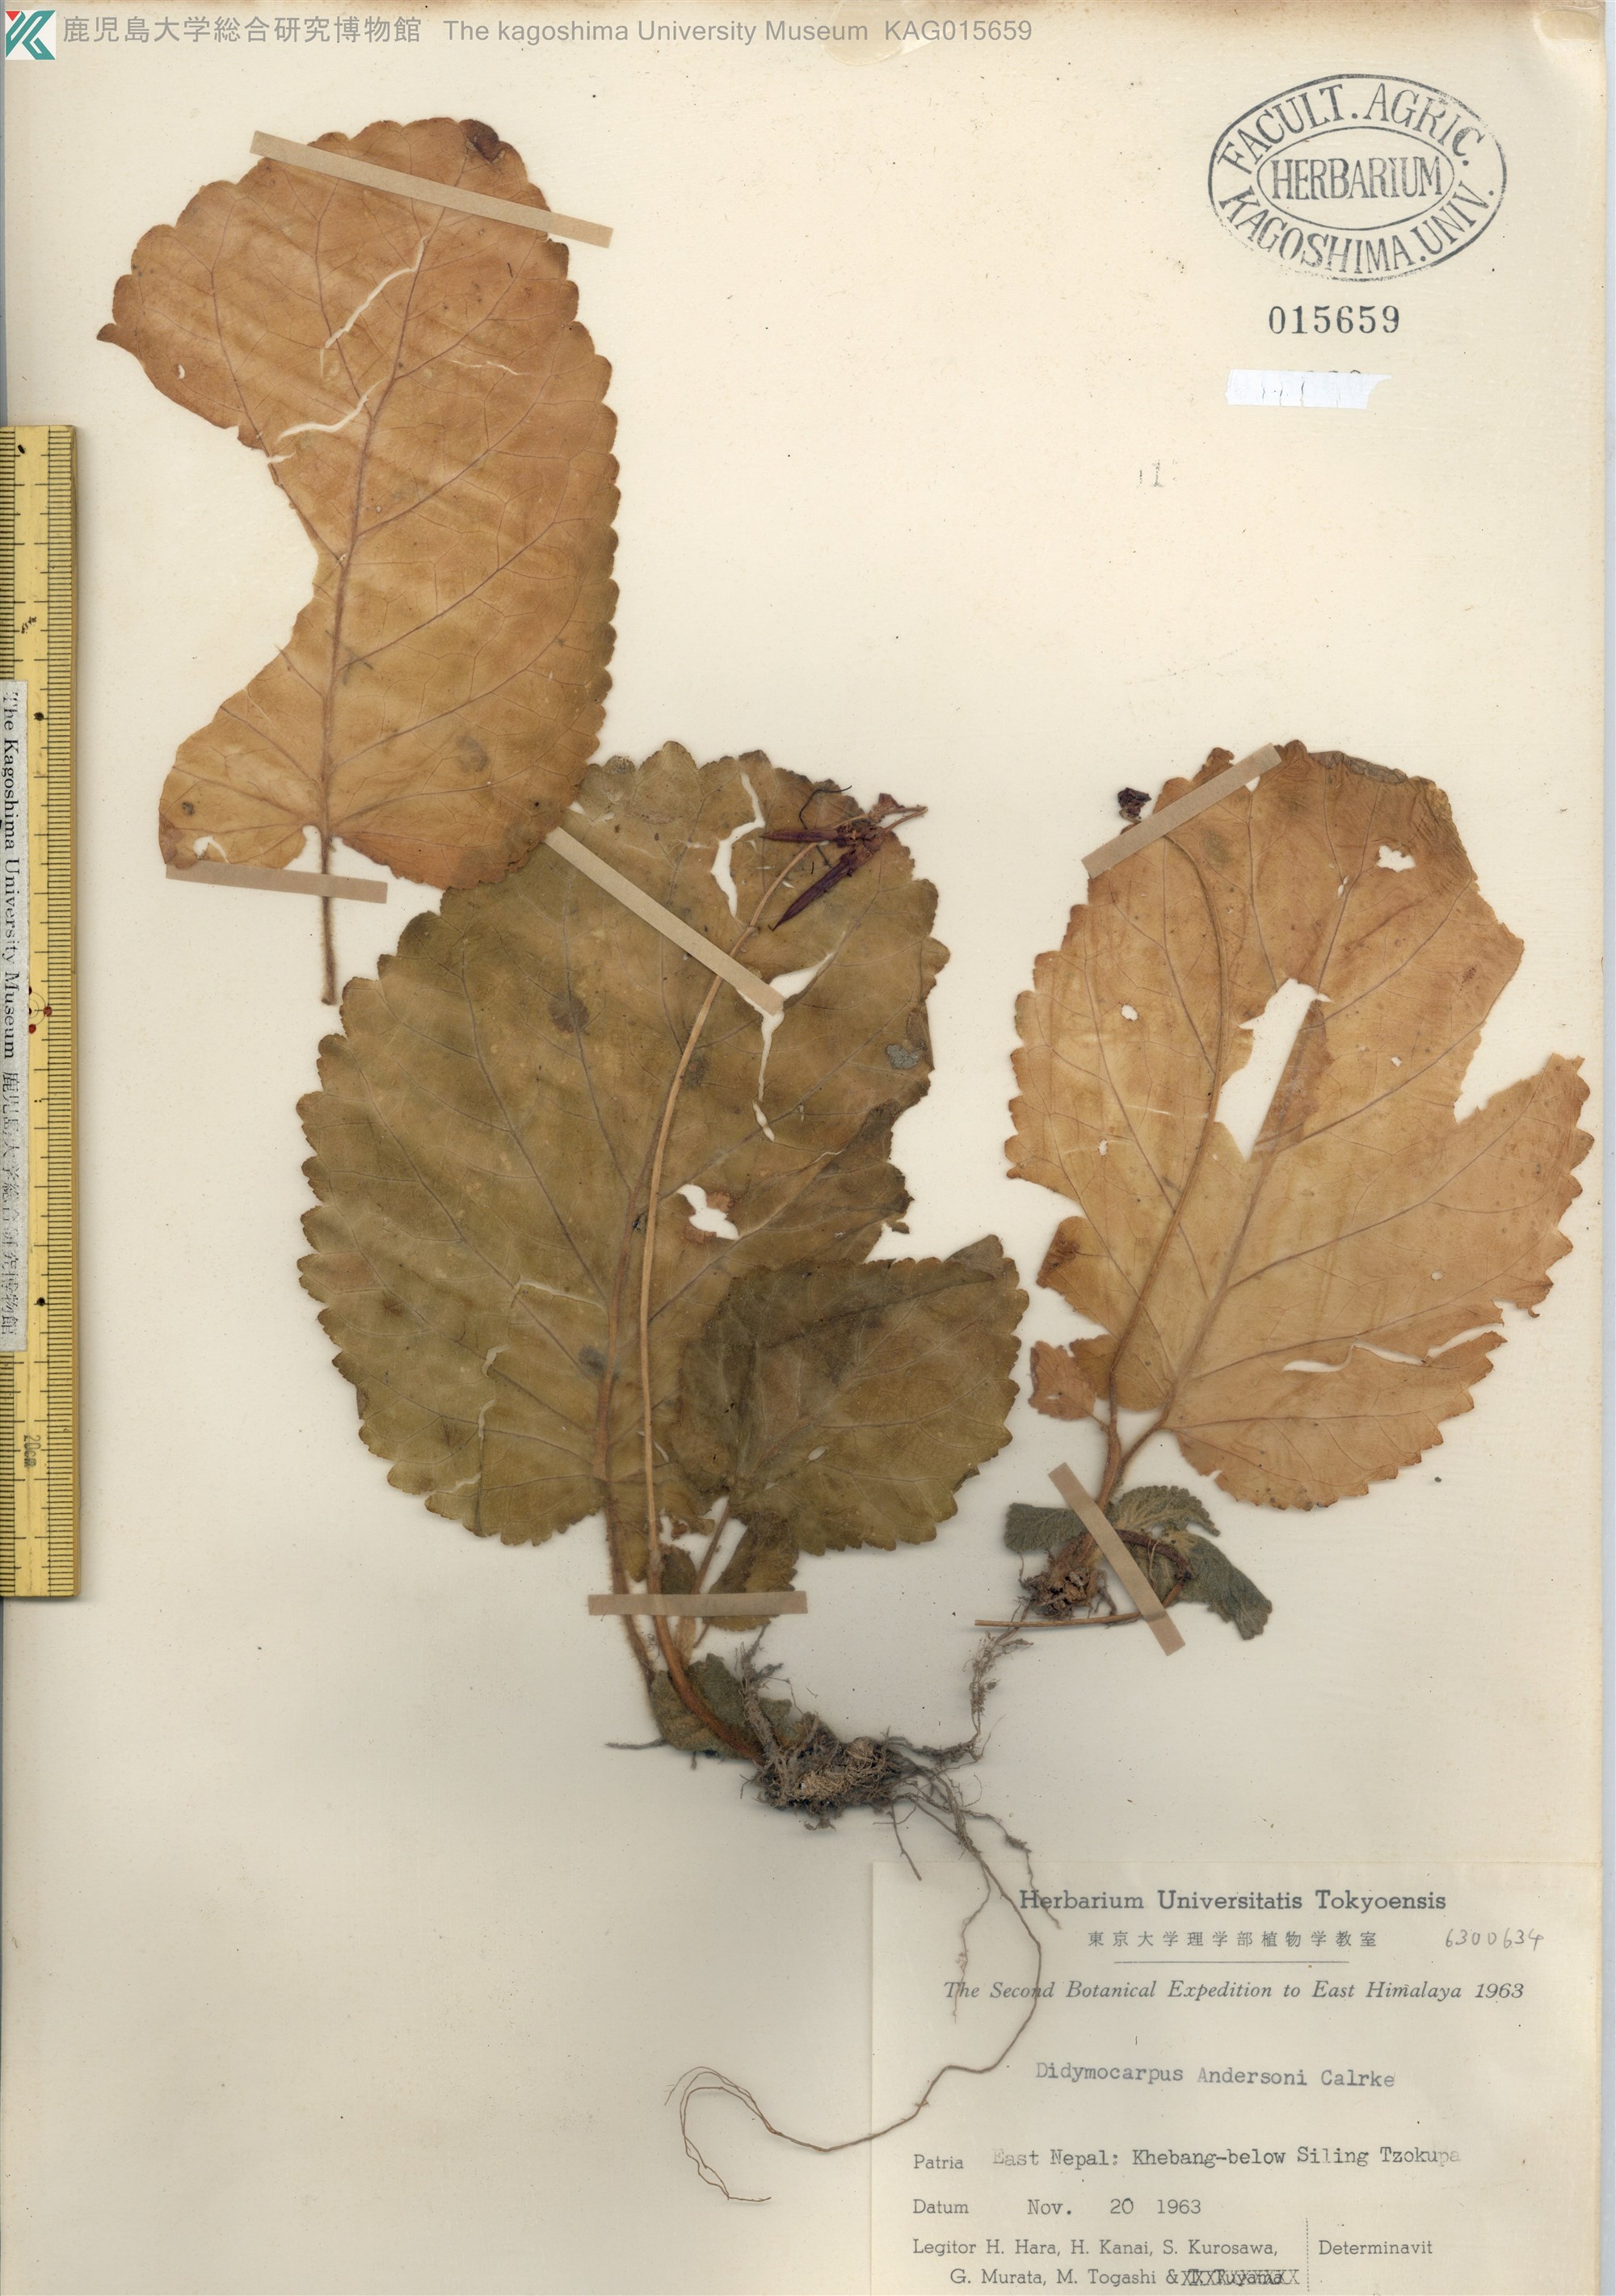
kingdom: Plantae
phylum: Tracheophyta
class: Magnoliopsida
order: Lamiales
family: Gesneriaceae
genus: Didymocarpus
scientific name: Didymocarpus andersonii
